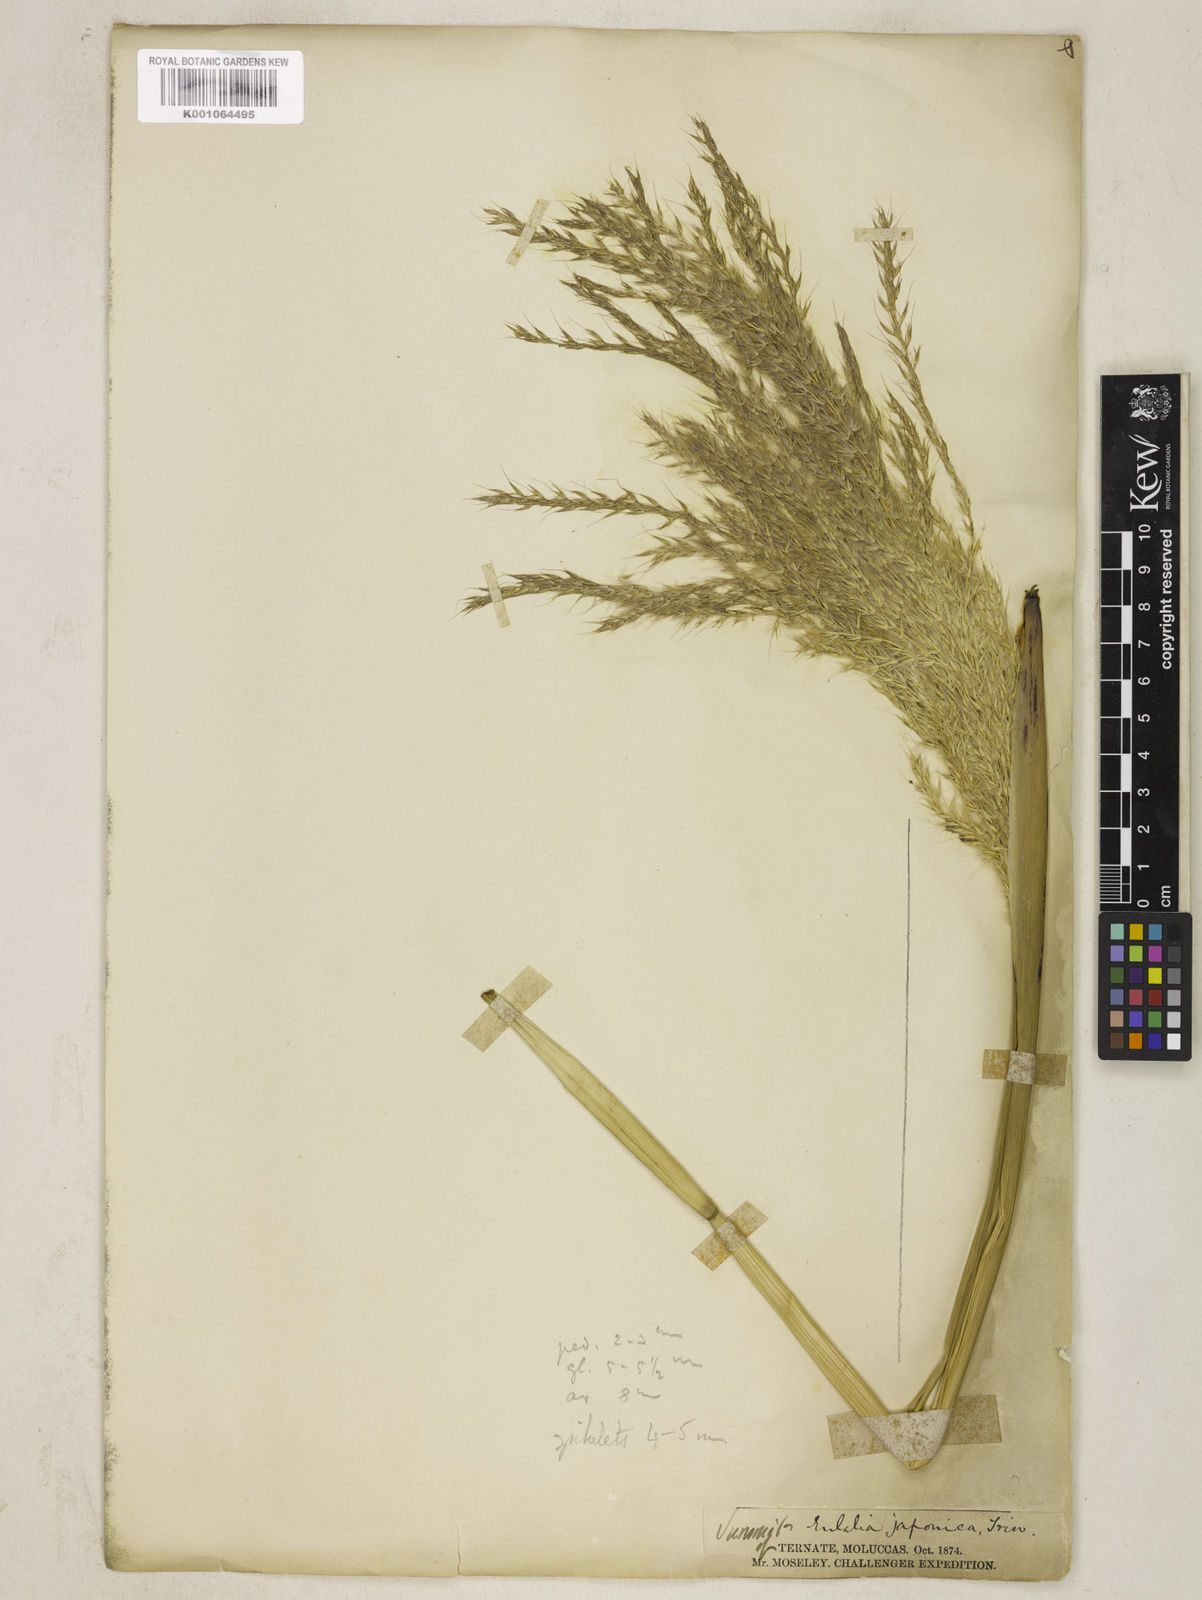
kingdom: Plantae
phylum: Tracheophyta
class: Liliopsida
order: Poales
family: Poaceae
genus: Miscanthus
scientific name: Miscanthus sinensis
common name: Chinese silvergrass
